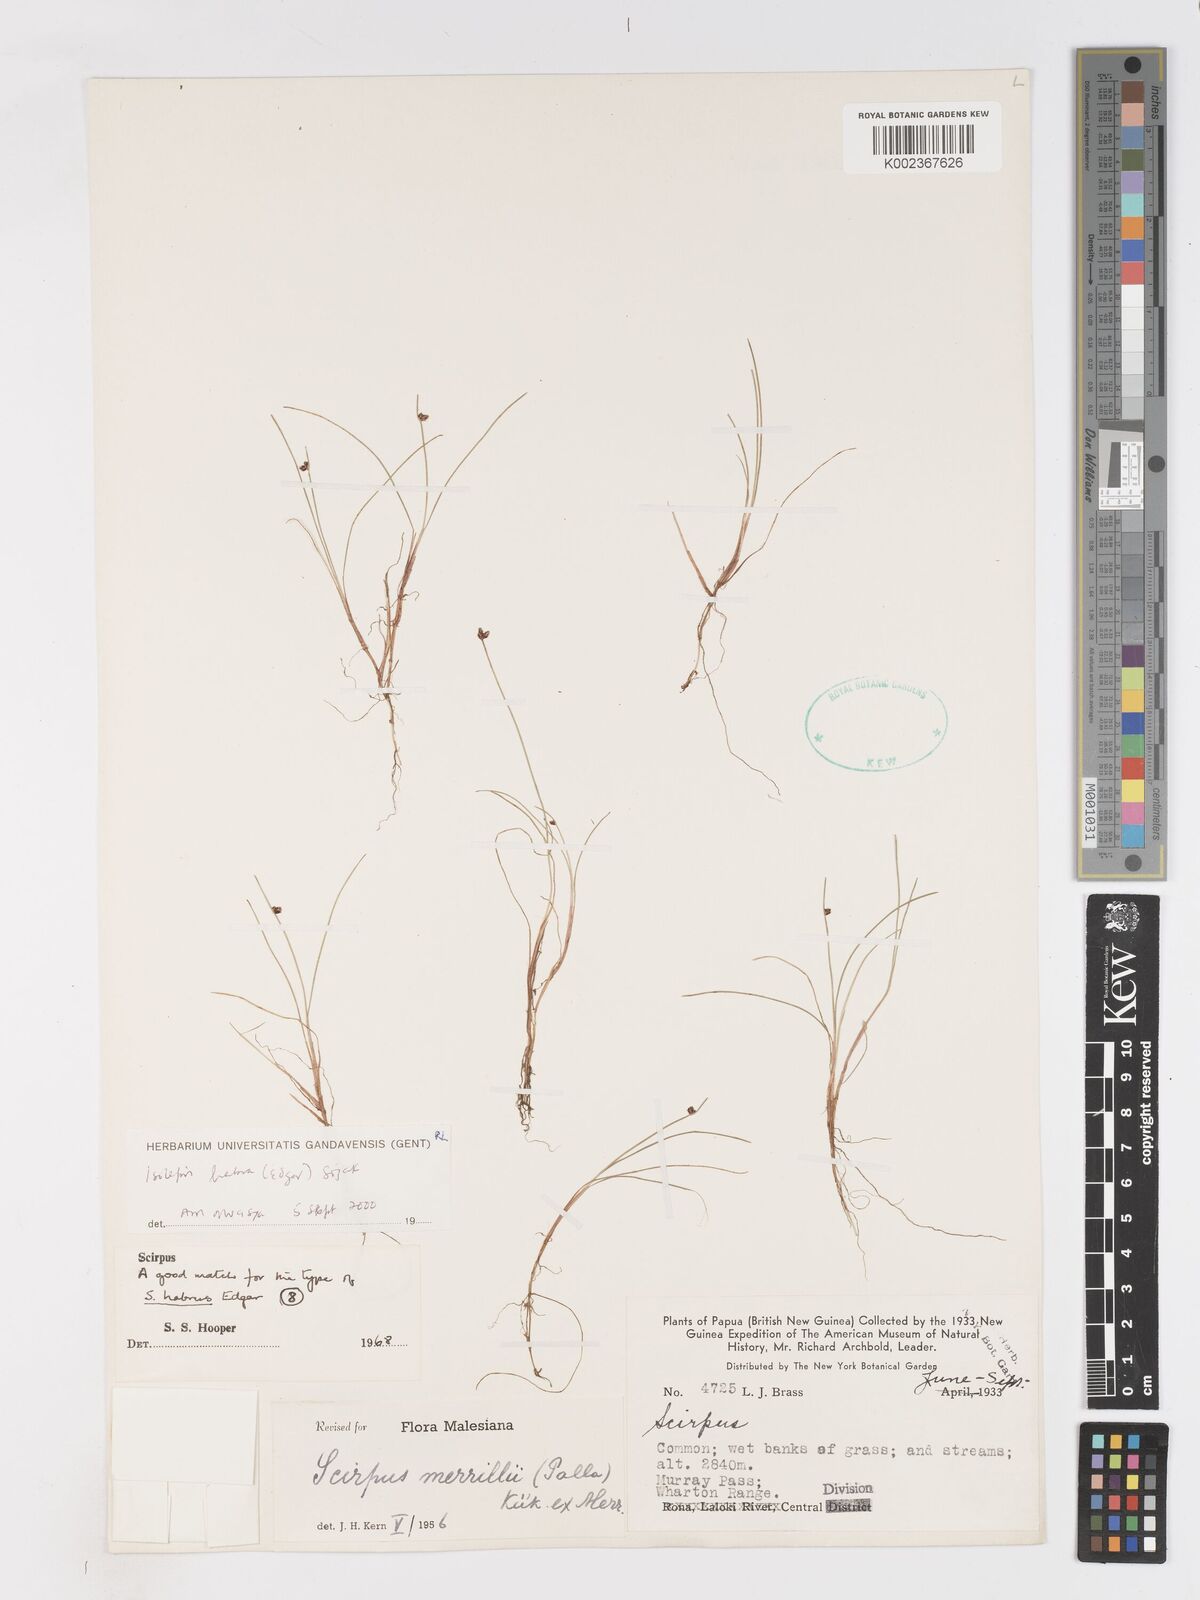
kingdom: Plantae
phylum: Tracheophyta
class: Liliopsida
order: Poales
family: Cyperaceae
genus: Isolepis
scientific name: Isolepis habra
